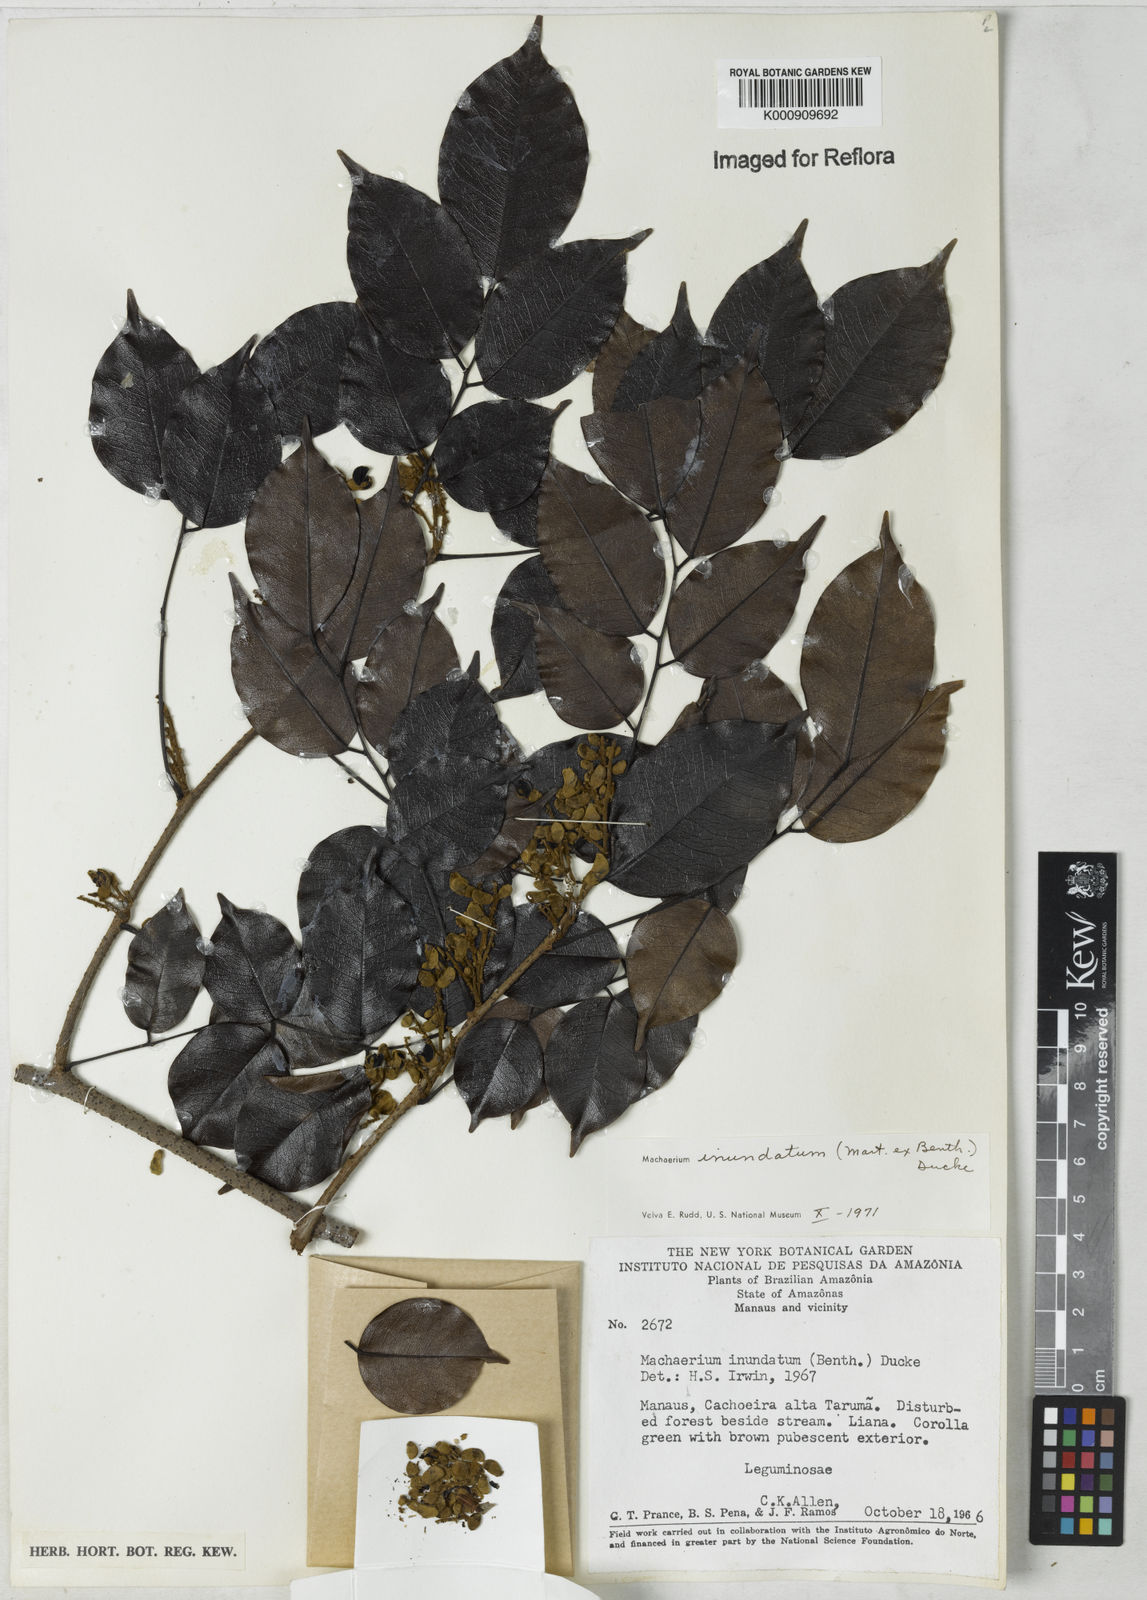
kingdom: Plantae
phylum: Tracheophyta
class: Magnoliopsida
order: Fabales
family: Fabaceae
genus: Machaerium
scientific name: Machaerium inundatum
